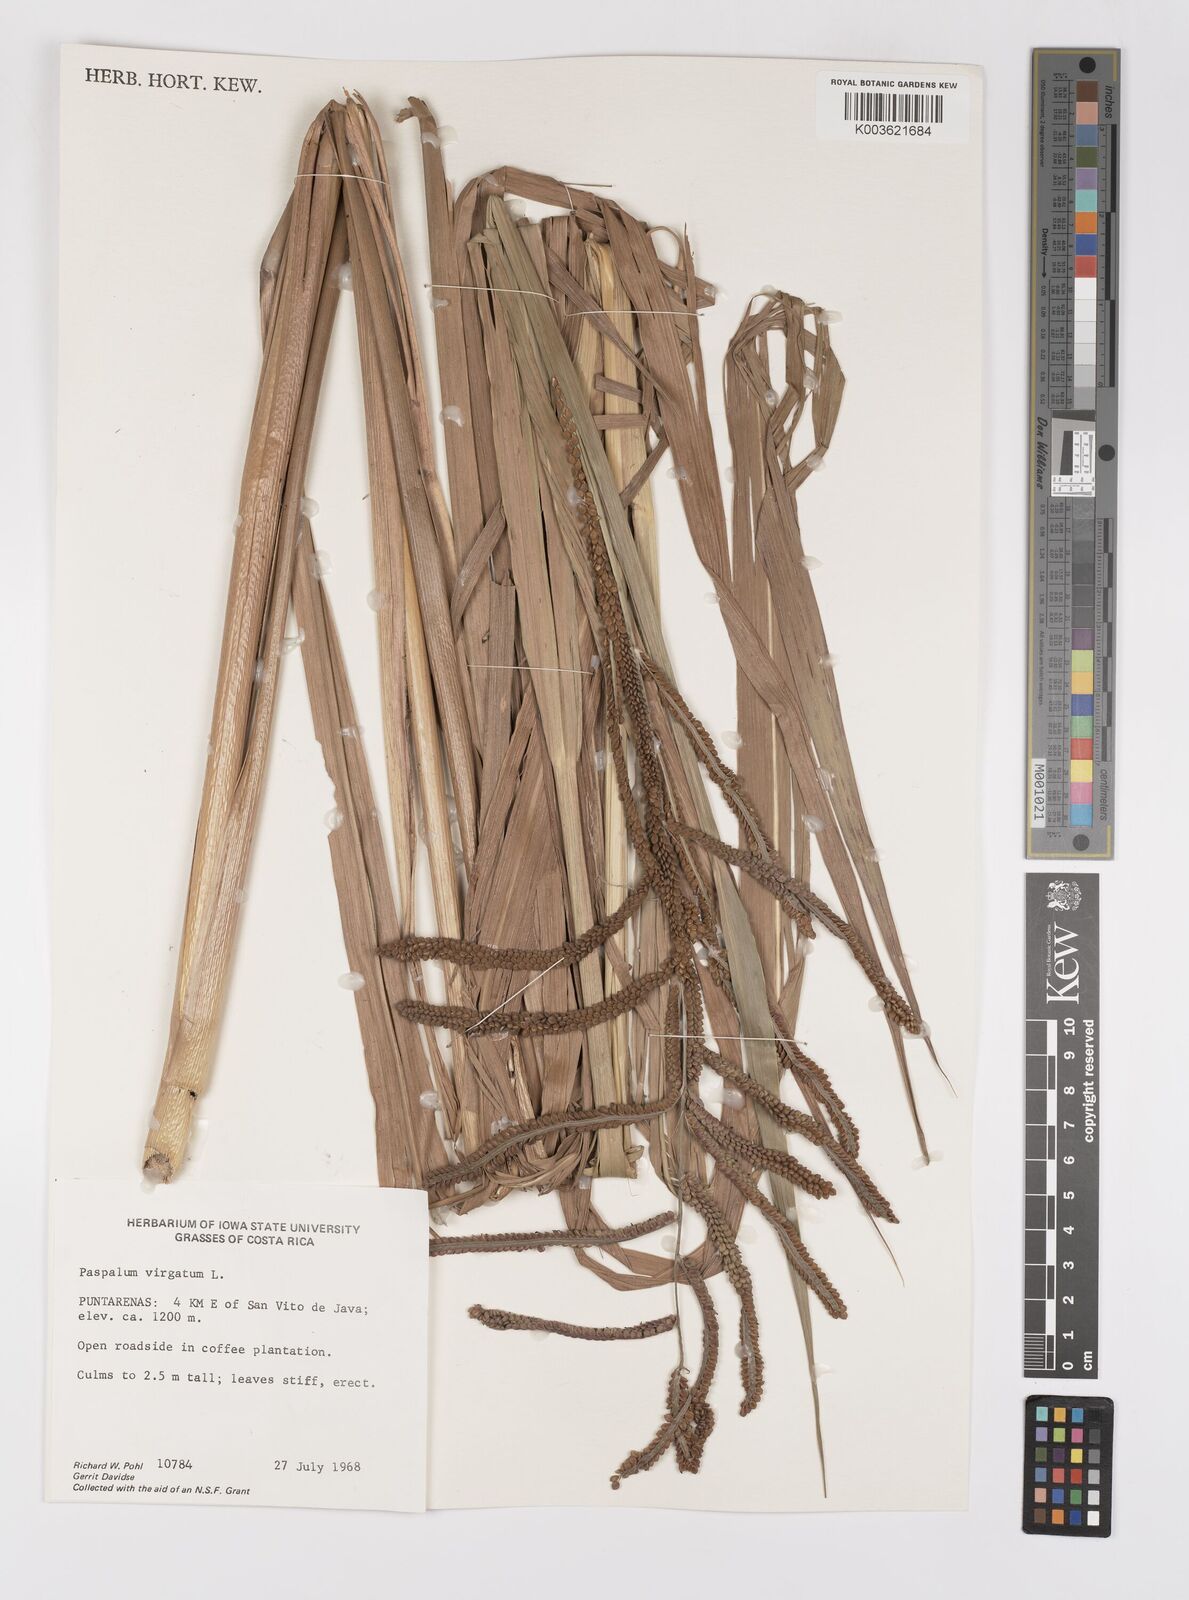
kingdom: Plantae
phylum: Tracheophyta
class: Liliopsida
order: Poales
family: Poaceae
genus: Paspalum
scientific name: Paspalum virgatum
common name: Talquezal
